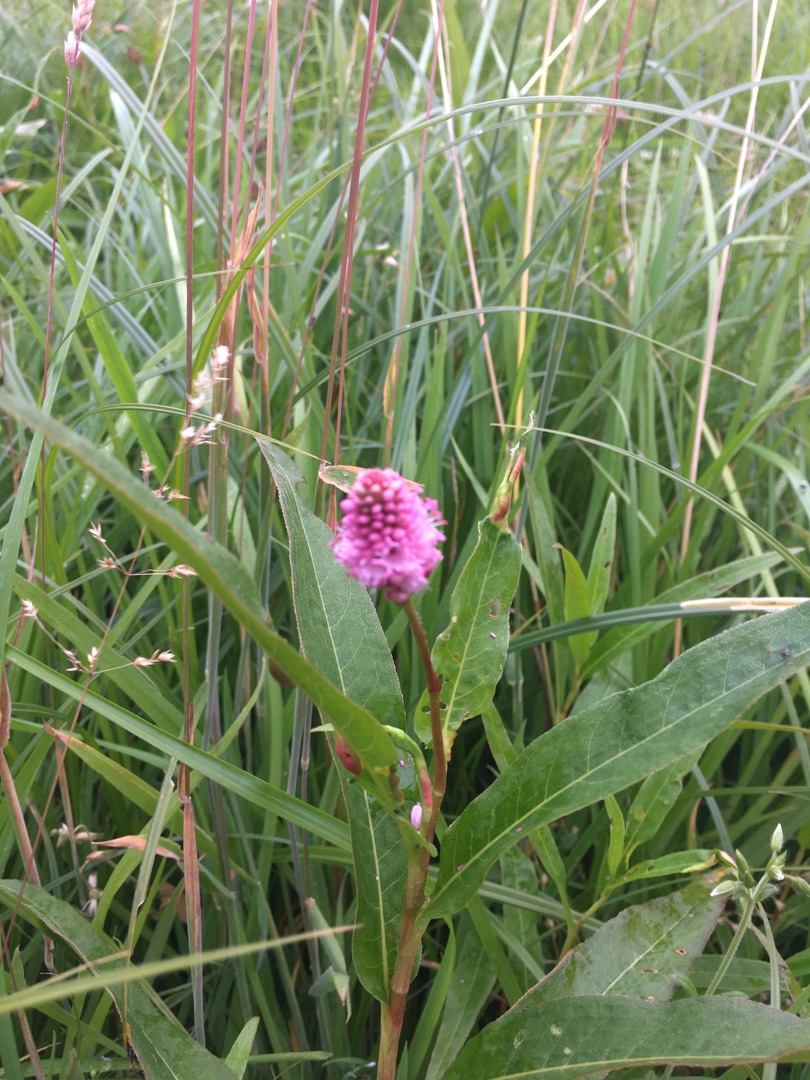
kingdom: Plantae
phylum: Tracheophyta
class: Magnoliopsida
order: Caryophyllales
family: Polygonaceae
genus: Persicaria
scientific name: Persicaria amphibia
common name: Vand-pileurt
